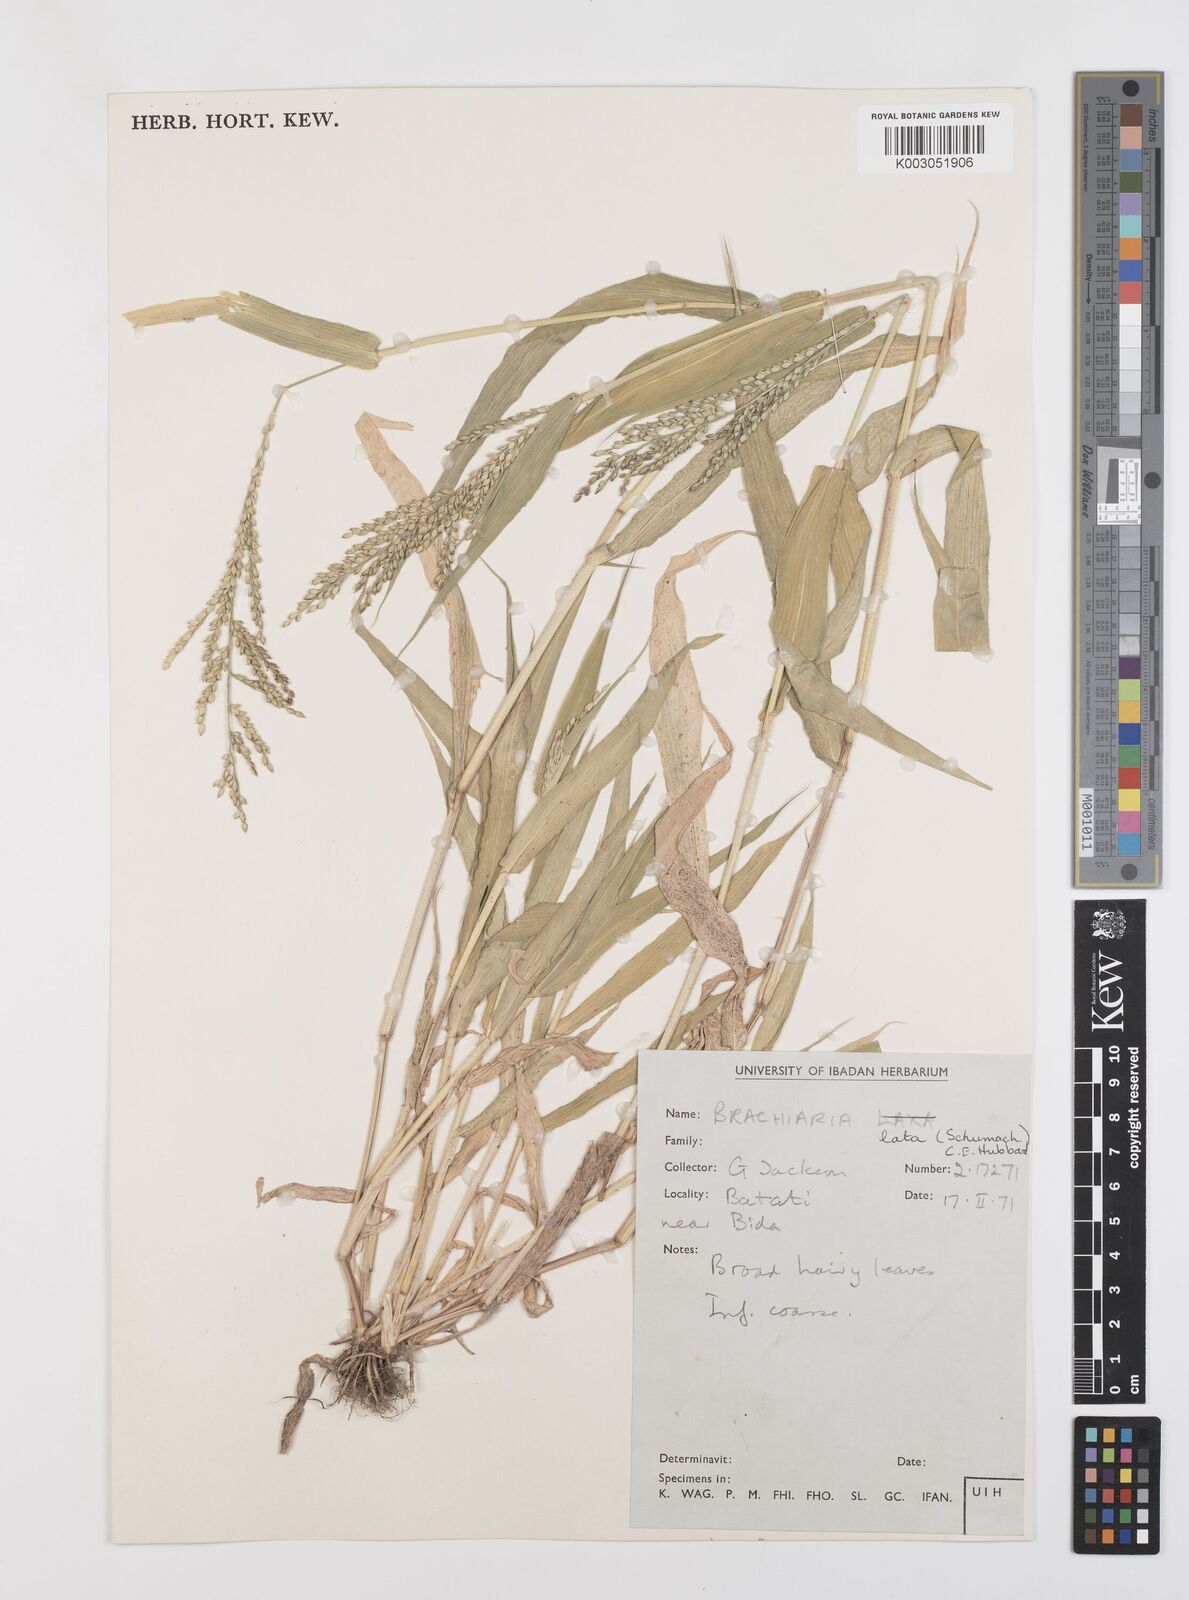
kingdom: Plantae
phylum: Tracheophyta
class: Liliopsida
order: Poales
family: Poaceae
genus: Urochloa
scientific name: Urochloa lata
